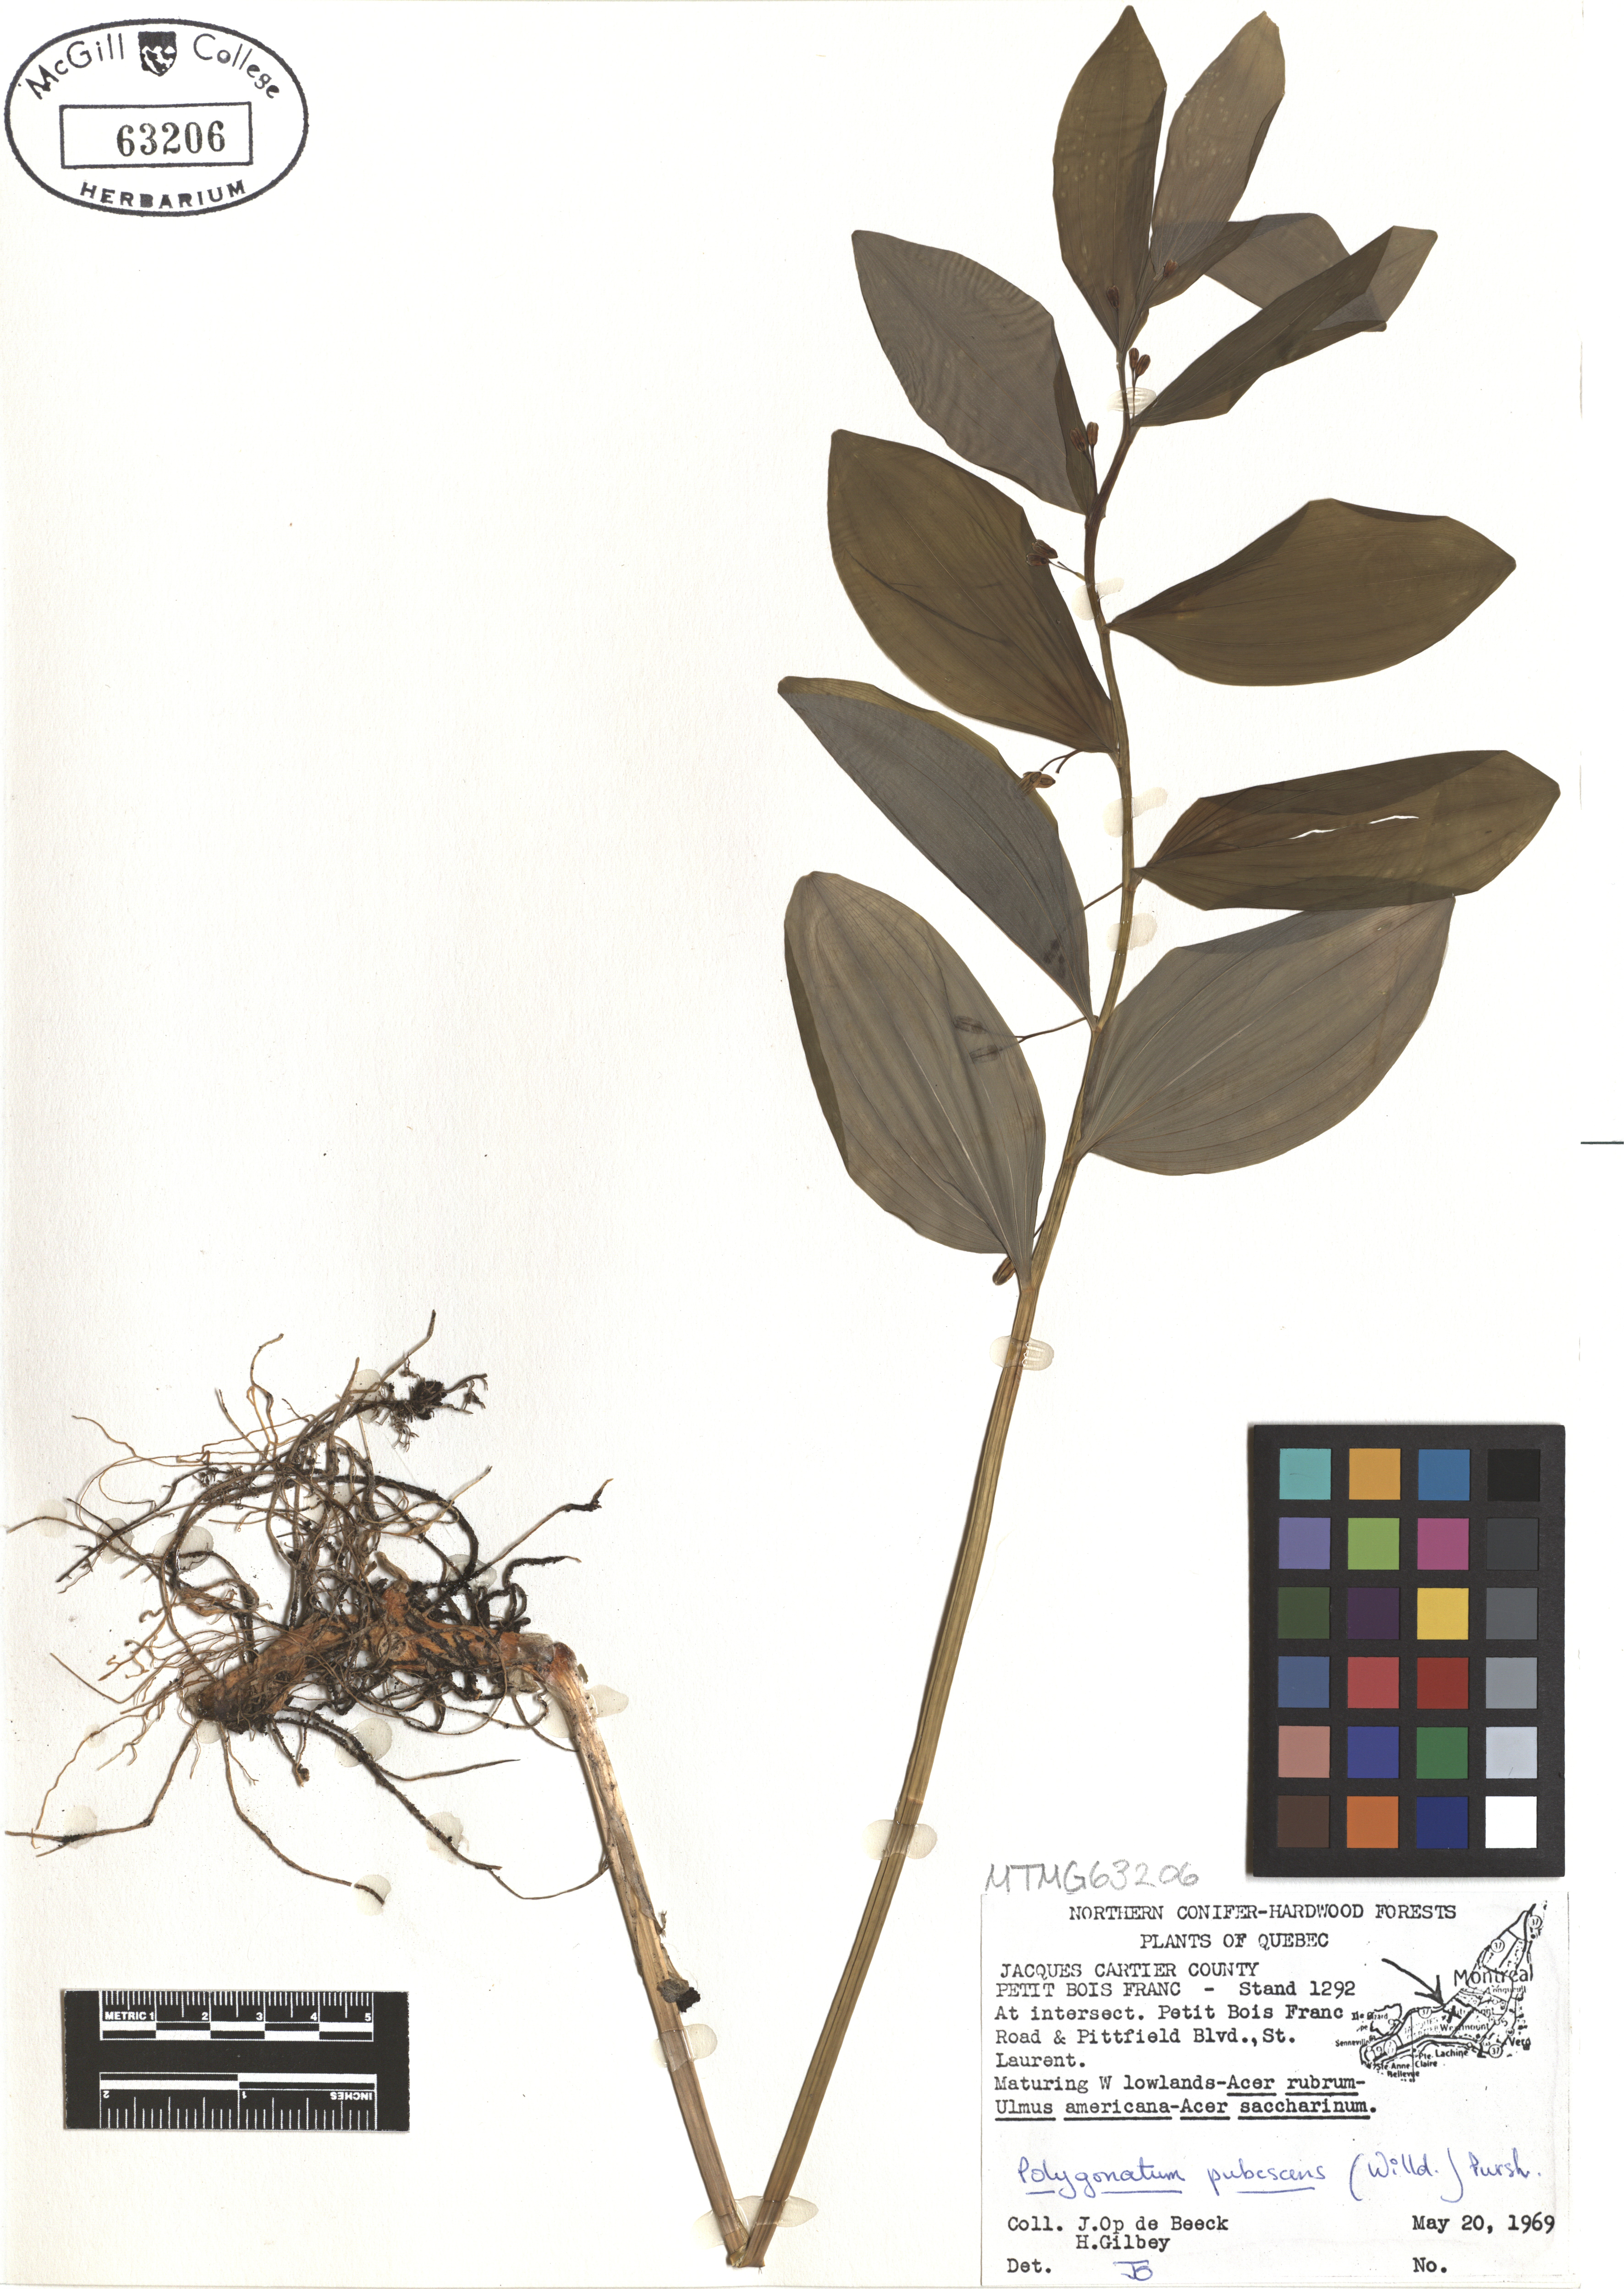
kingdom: Plantae
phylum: Tracheophyta
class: Liliopsida
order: Asparagales
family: Asparagaceae
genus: Polygonatum
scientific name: Polygonatum pubescens
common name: Downy solomon's seal
